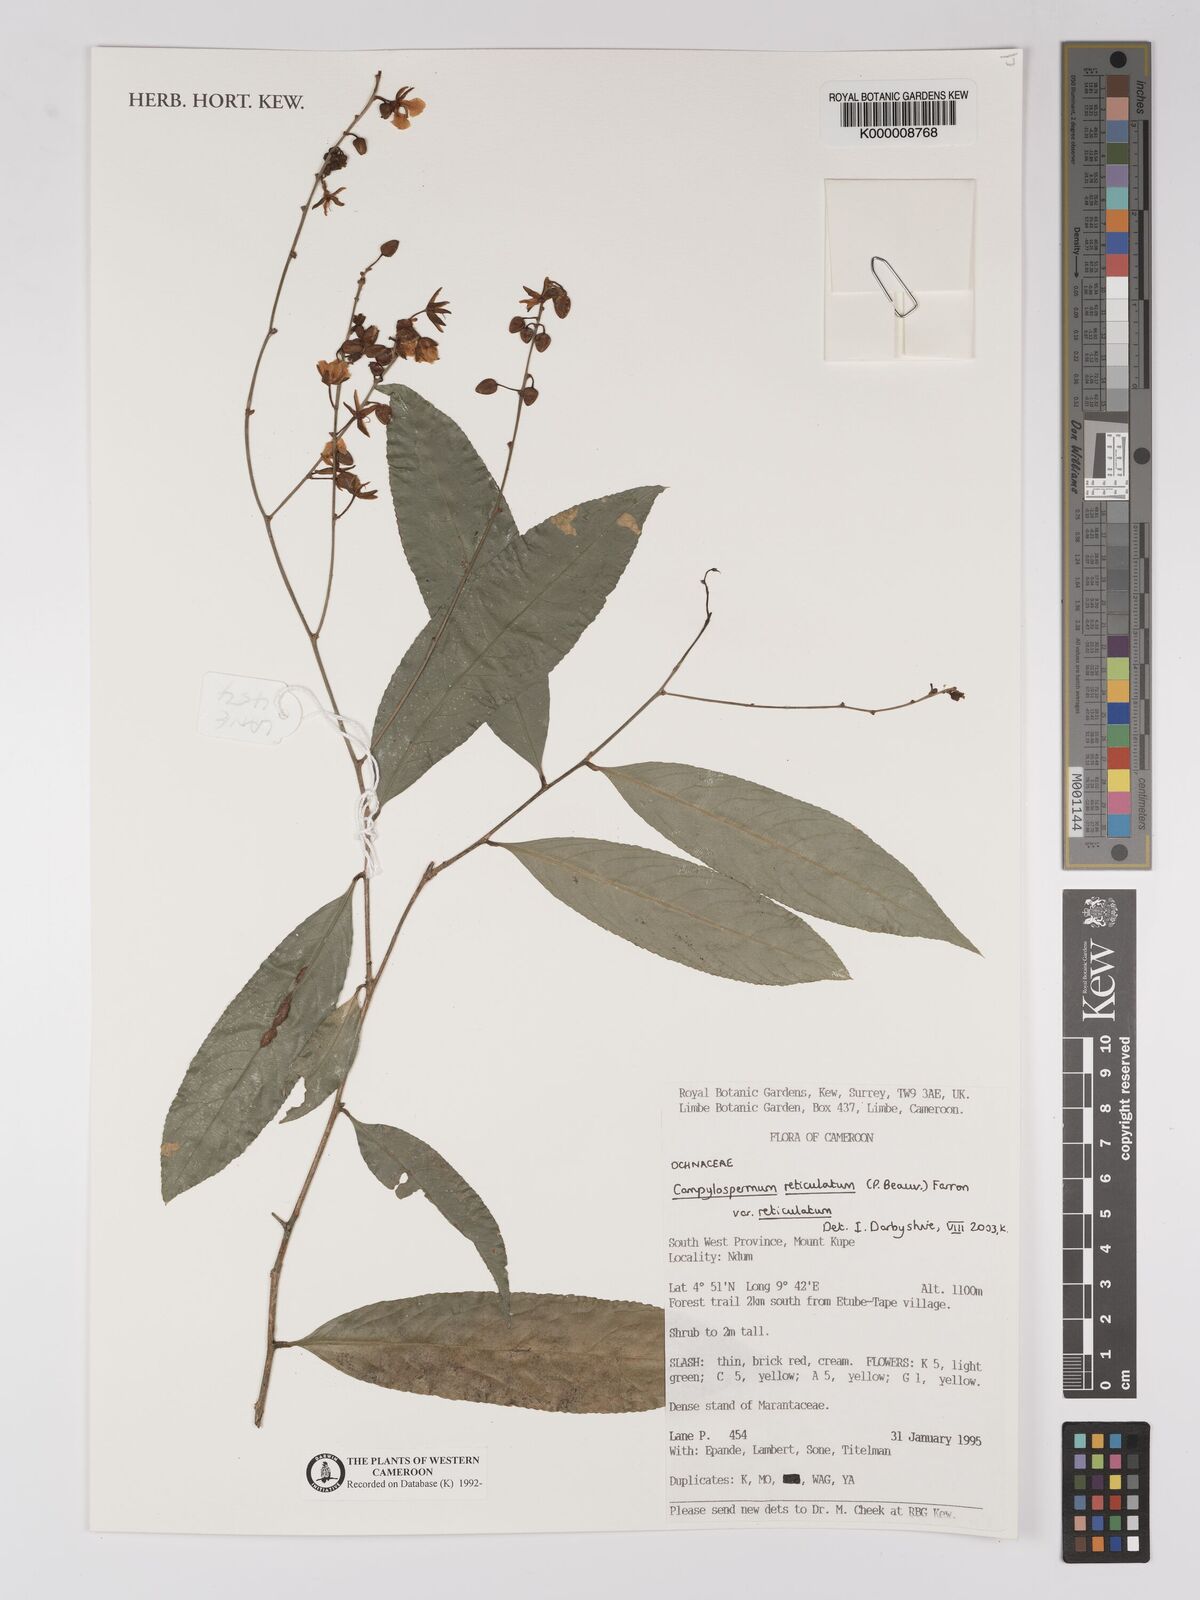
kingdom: Plantae
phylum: Tracheophyta
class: Magnoliopsida
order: Malpighiales
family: Ochnaceae
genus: Campylospermum
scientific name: Campylospermum reticulatum
